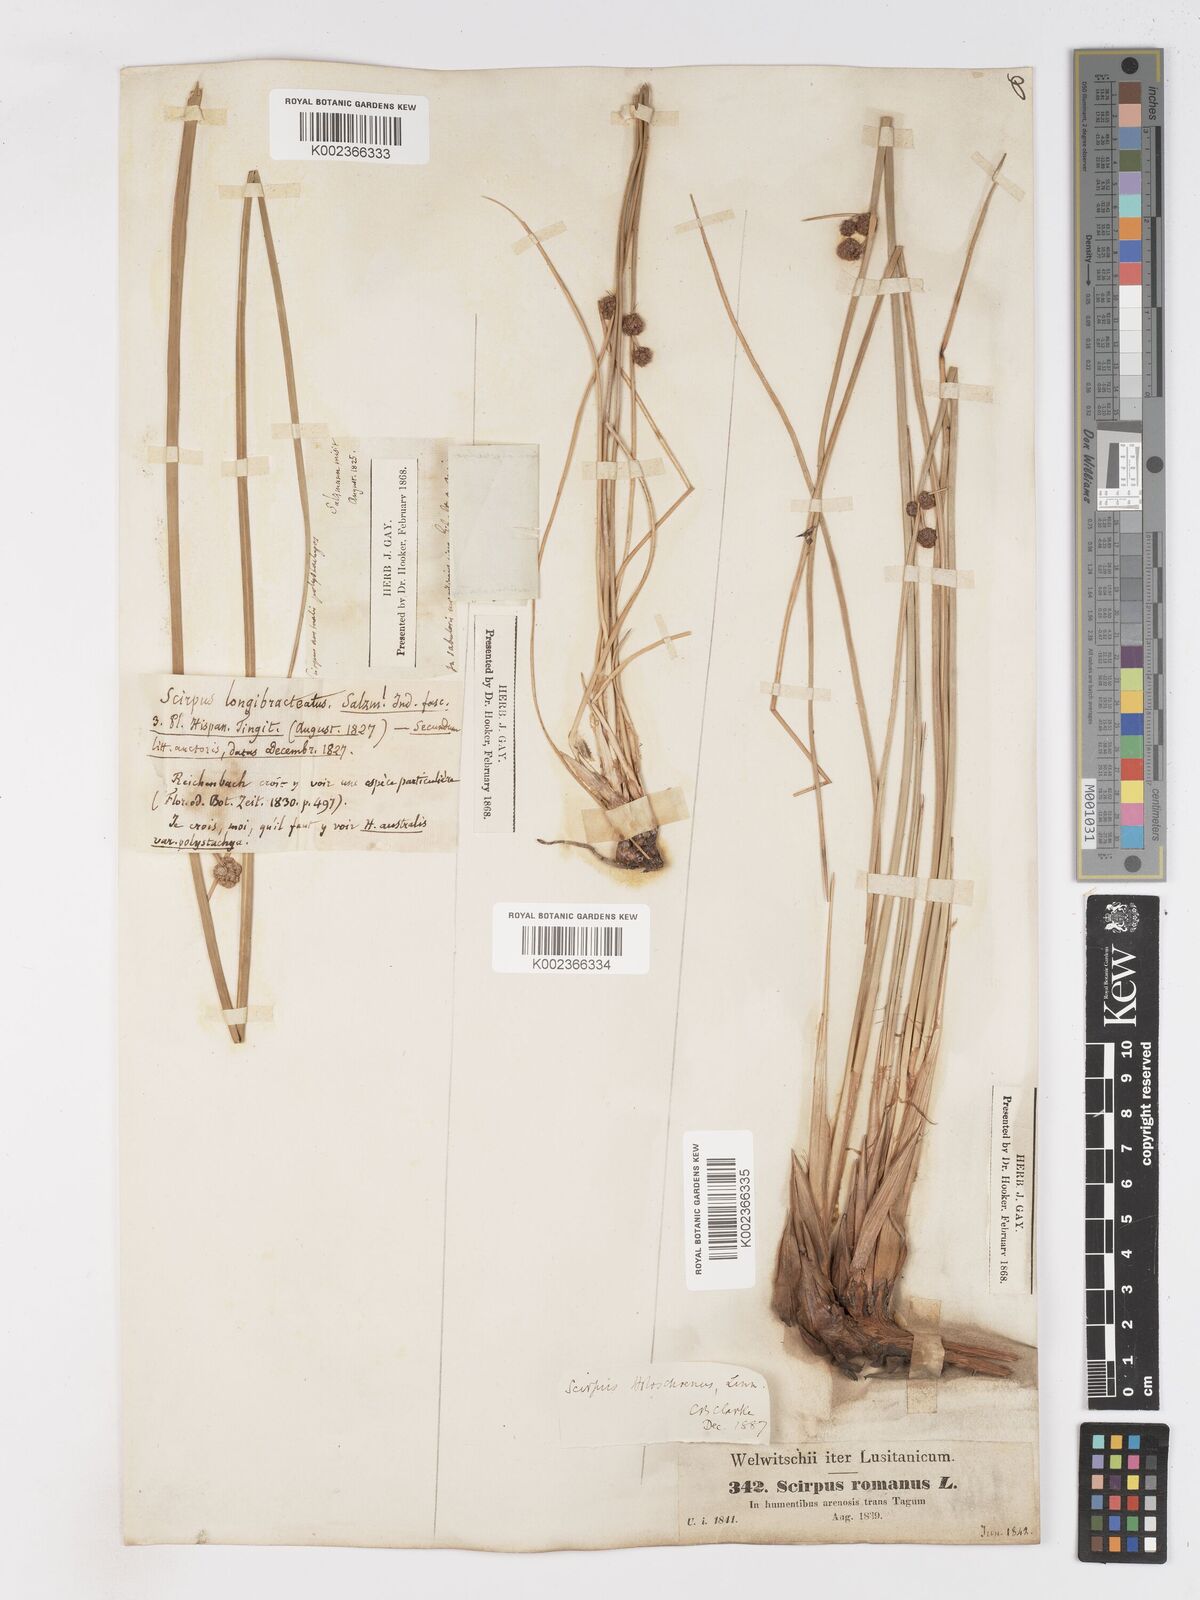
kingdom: Plantae
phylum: Tracheophyta
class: Liliopsida
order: Poales
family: Cyperaceae
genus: Scirpoides
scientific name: Scirpoides holoschoenus
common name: Round-headed club-rush
